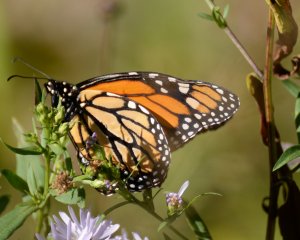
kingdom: Animalia
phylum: Arthropoda
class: Insecta
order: Lepidoptera
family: Nymphalidae
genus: Danaus
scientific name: Danaus plexippus
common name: Monarch
